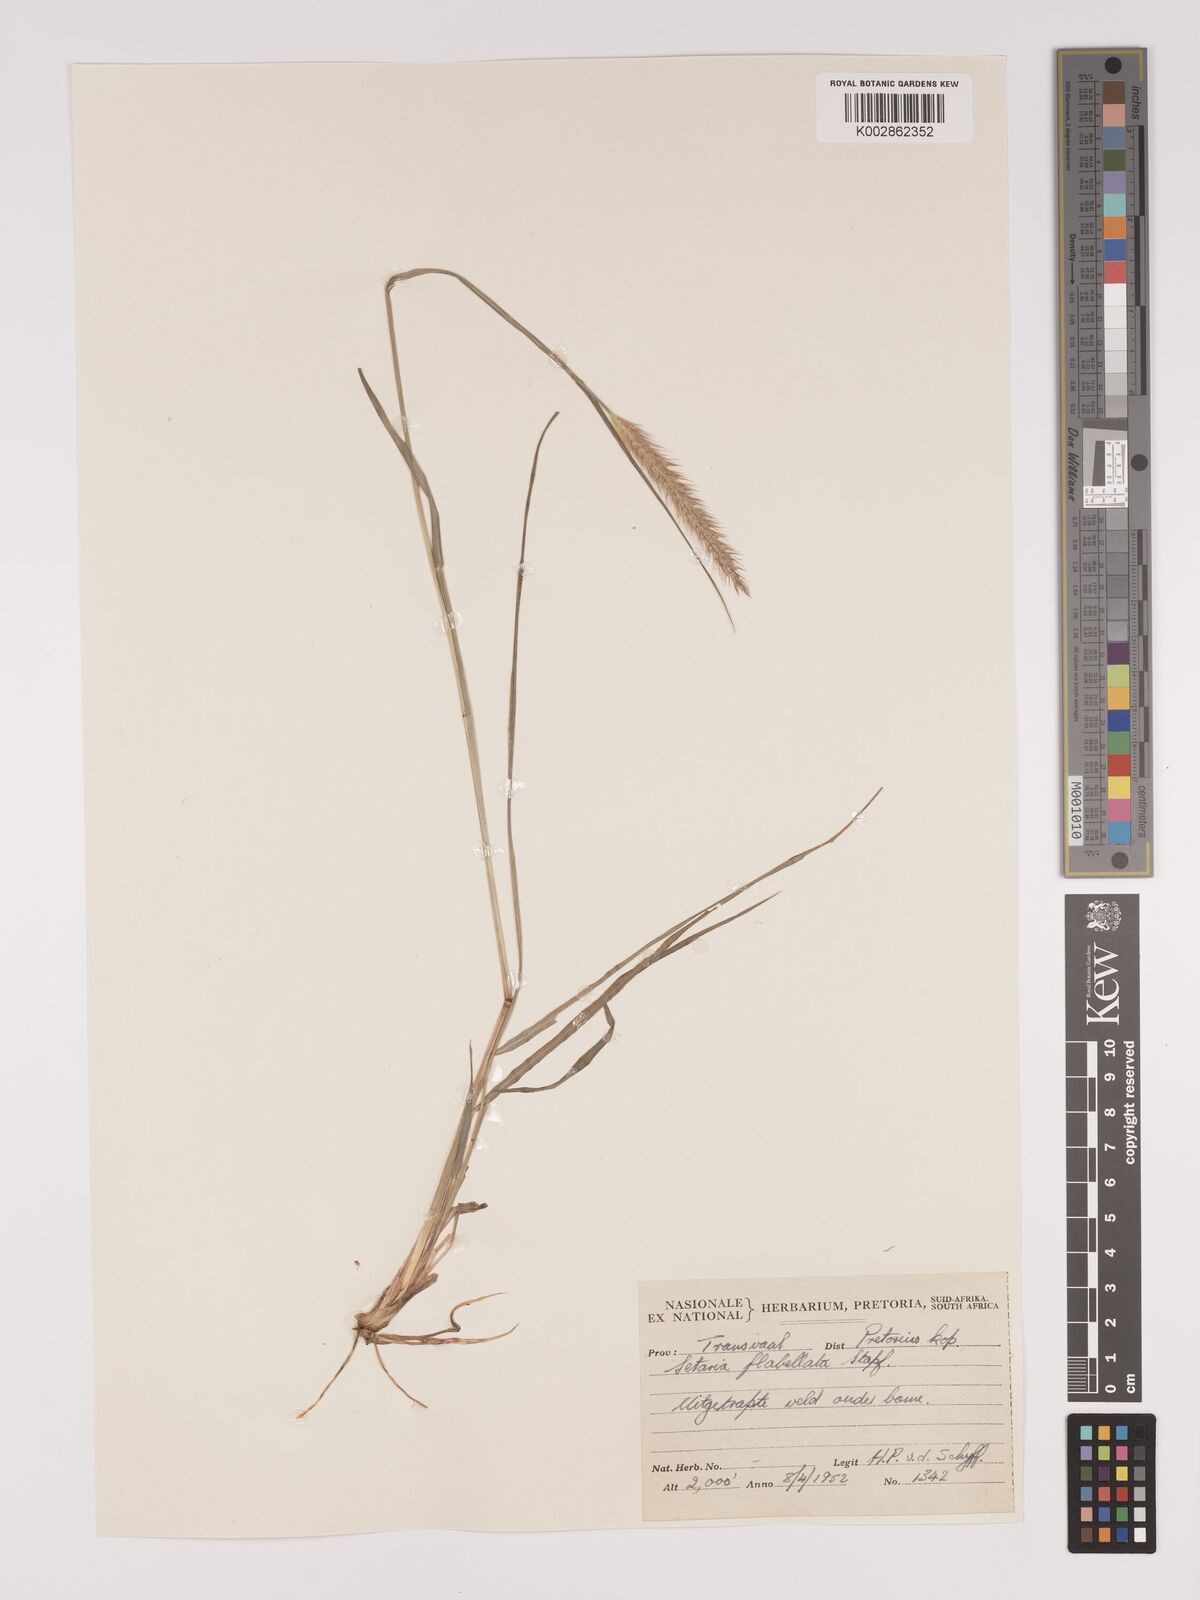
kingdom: Plantae
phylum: Tracheophyta
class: Liliopsida
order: Poales
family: Poaceae
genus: Setaria
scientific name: Setaria sphacelata
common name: African bristlegrass
